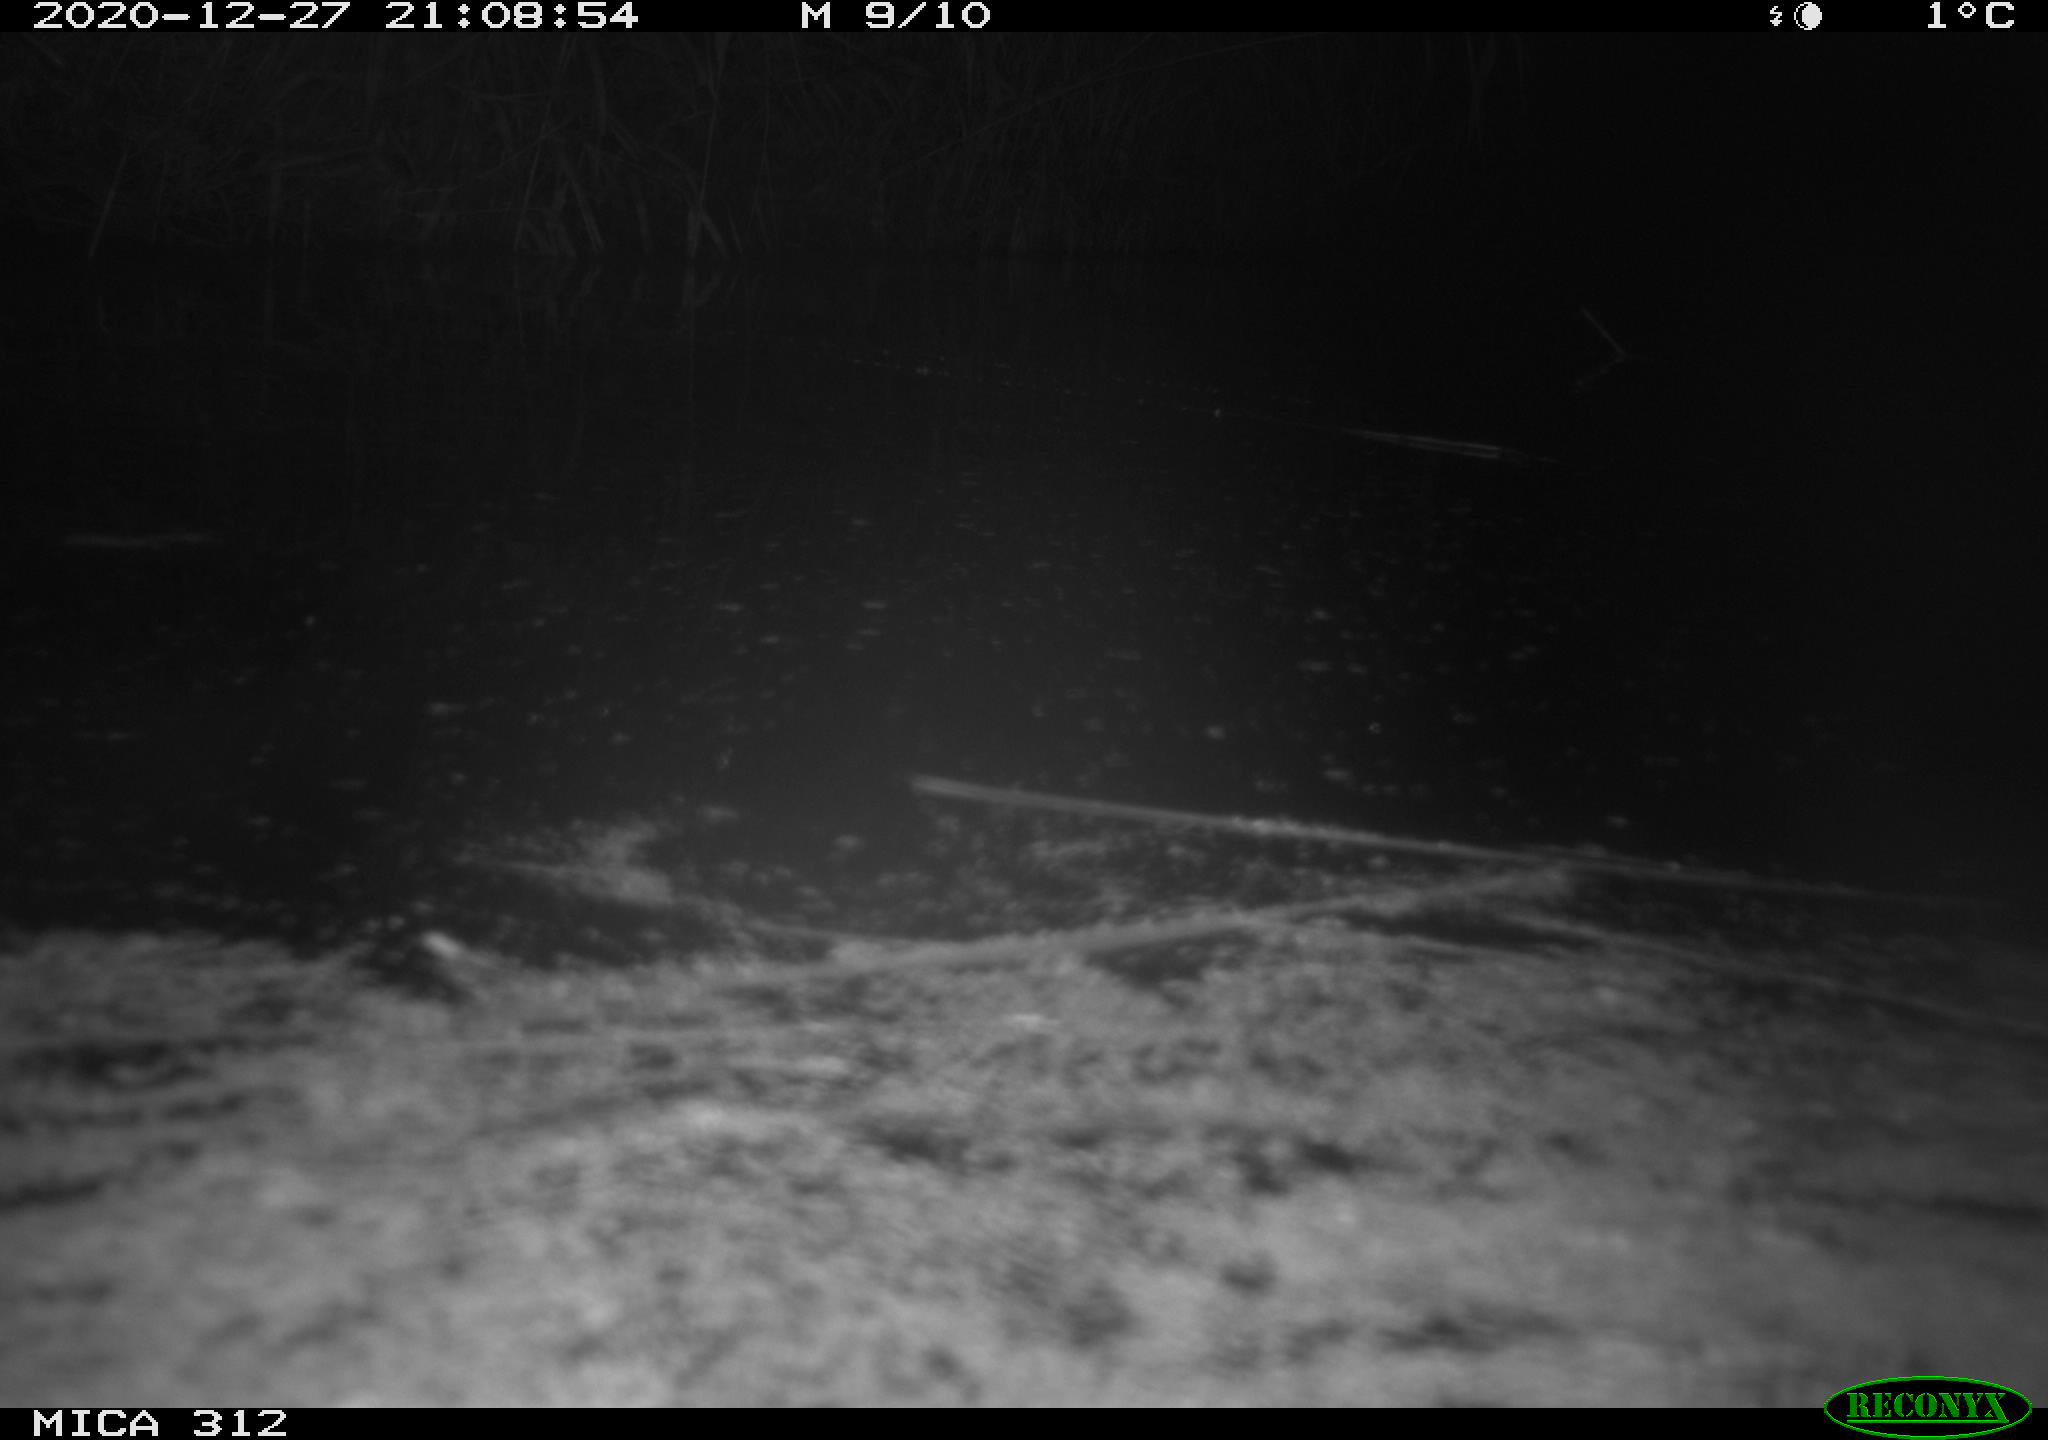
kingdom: Animalia
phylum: Chordata
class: Aves
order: Gruiformes
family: Rallidae
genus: Fulica
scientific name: Fulica atra
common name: Eurasian coot
